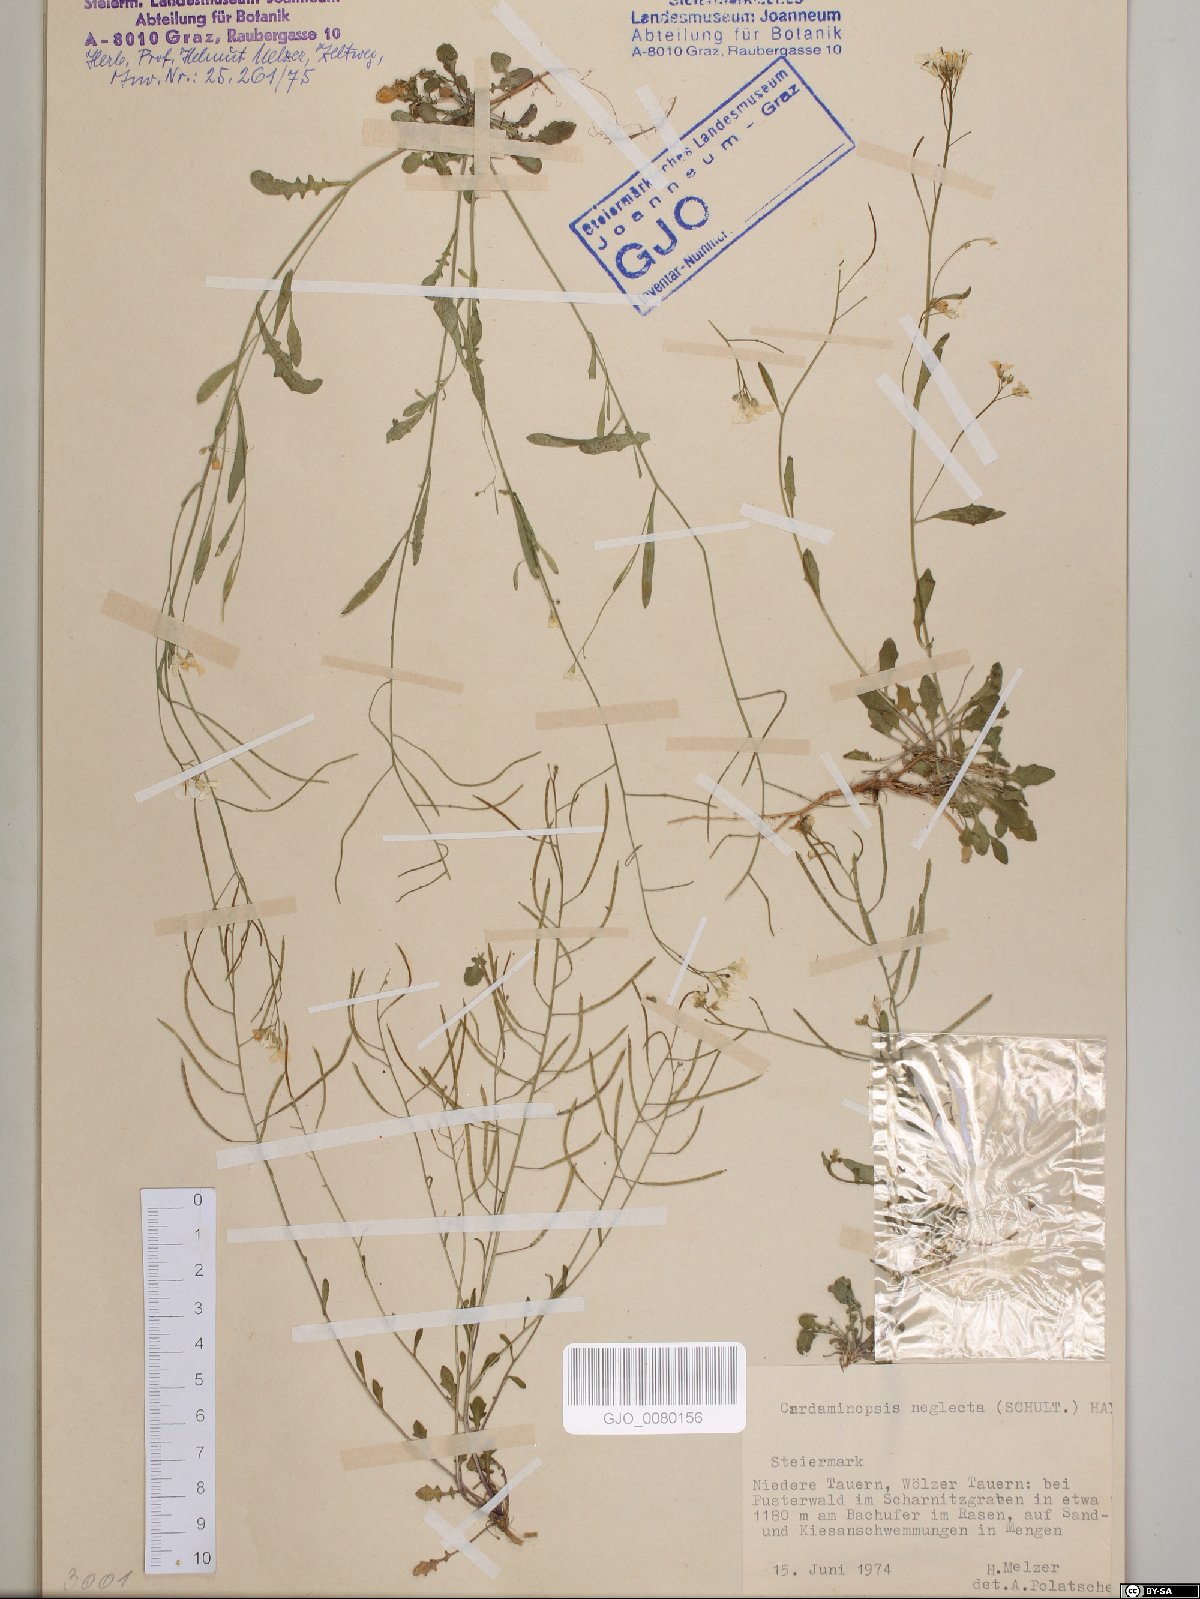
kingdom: Plantae
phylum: Tracheophyta
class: Magnoliopsida
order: Brassicales
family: Brassicaceae
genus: Arabidopsis
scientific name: Arabidopsis neglecta
